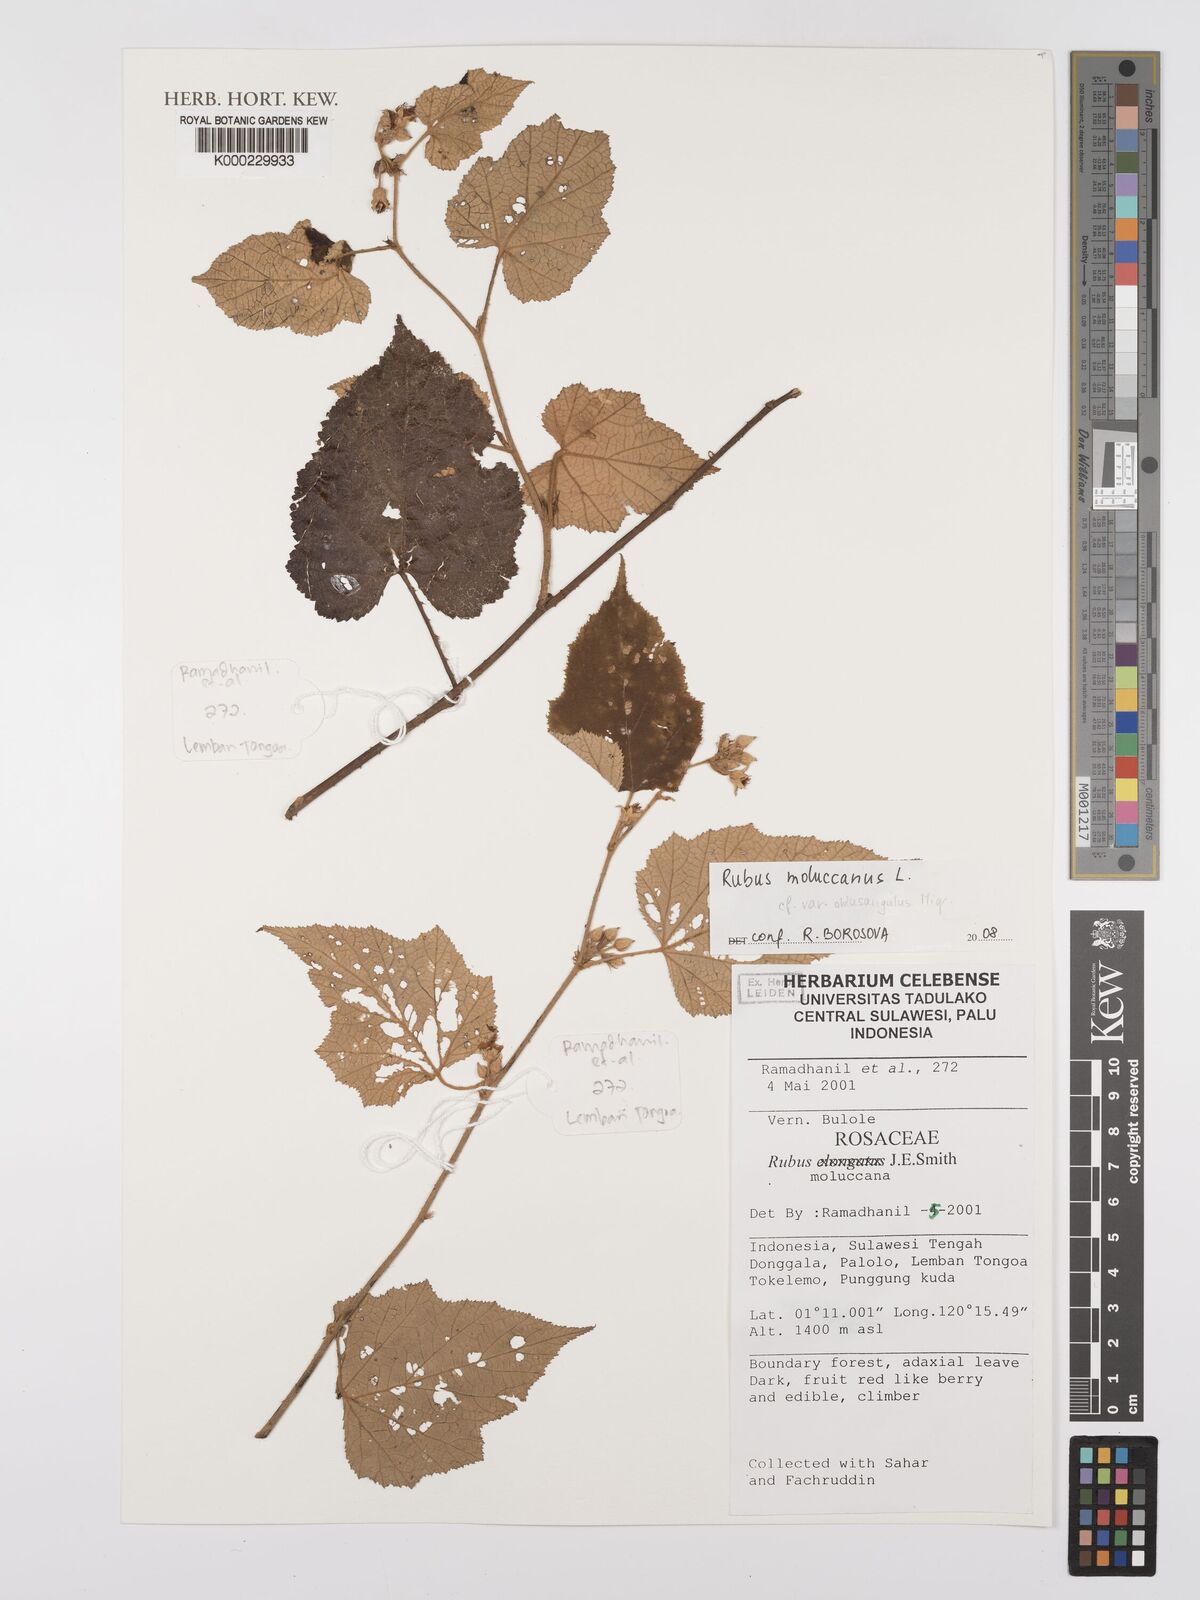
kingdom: Plantae
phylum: Tracheophyta
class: Magnoliopsida
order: Rosales
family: Rosaceae
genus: Rubus
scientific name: Rubus moluccanus
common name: Wild raspberry
